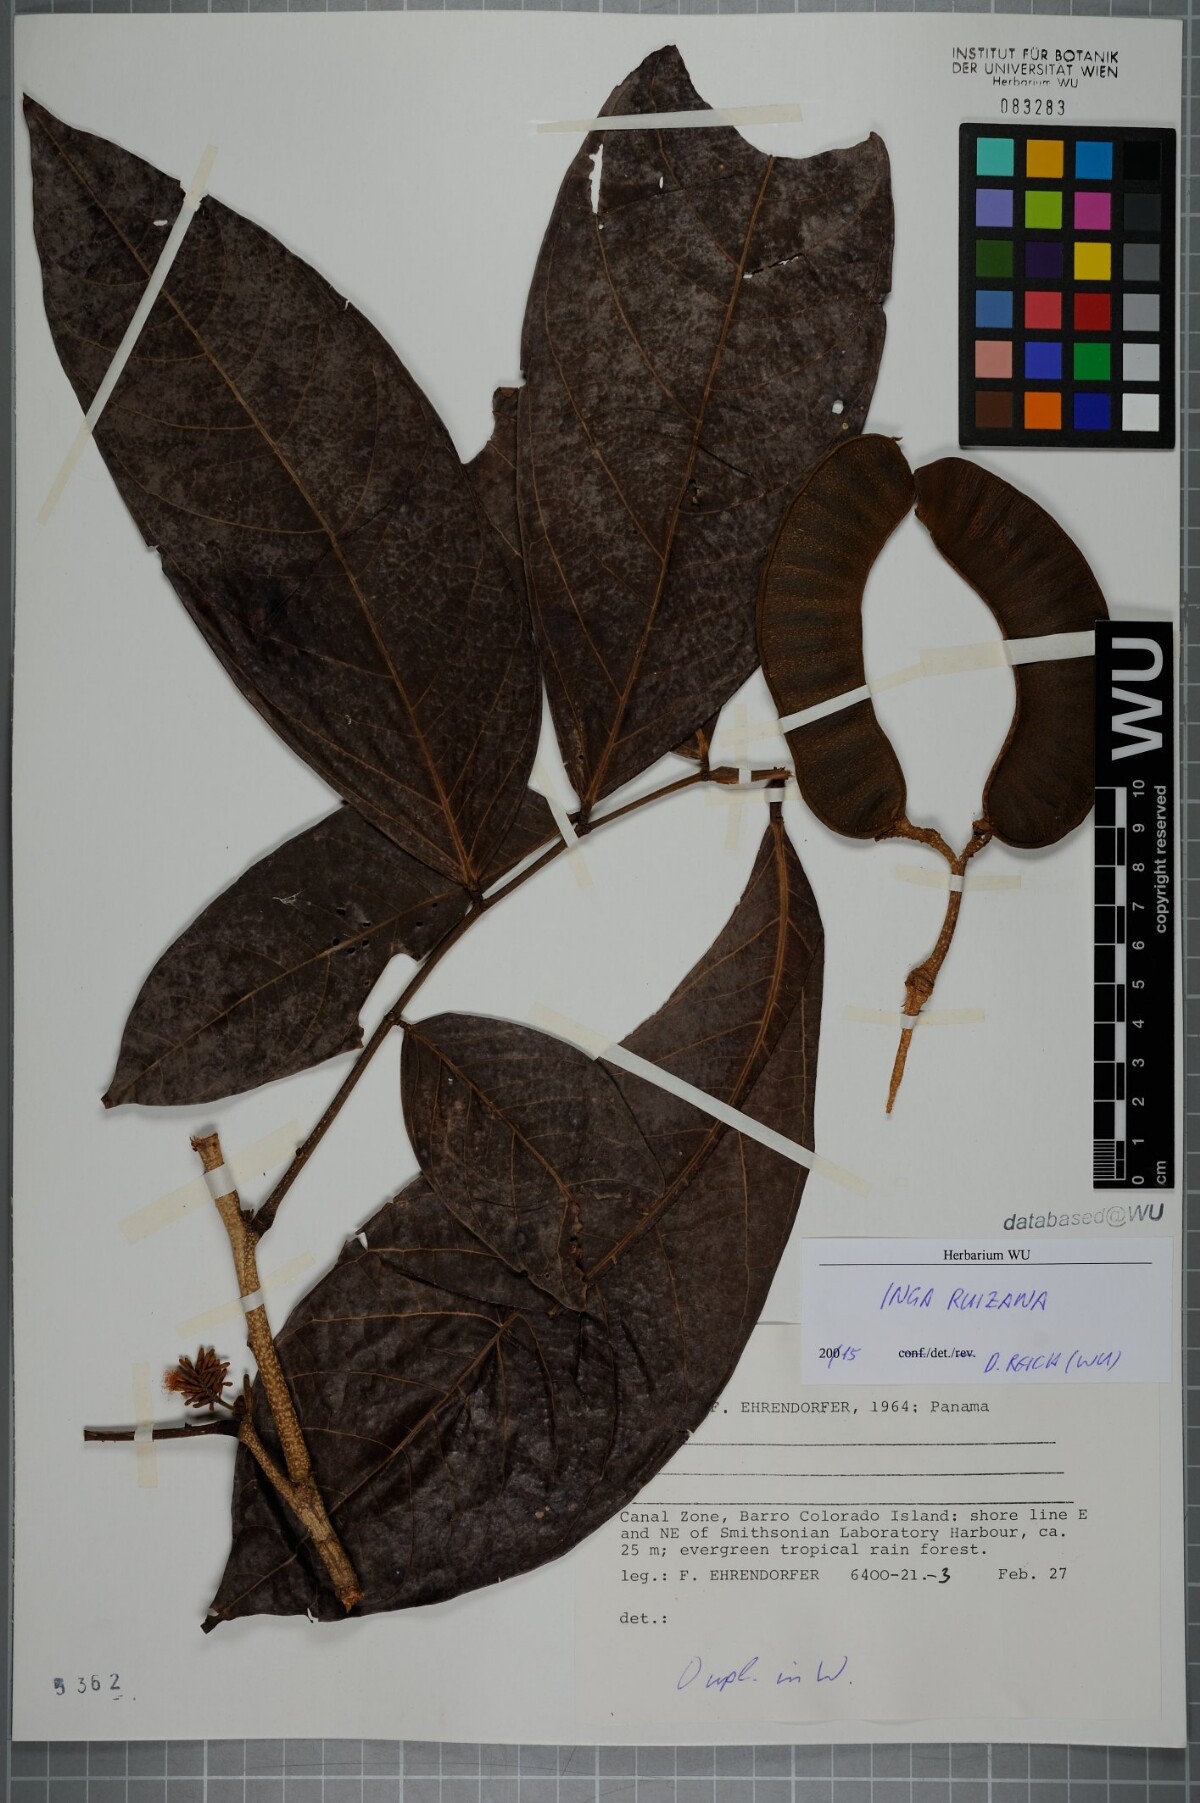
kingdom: Plantae
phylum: Tracheophyta
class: Magnoliopsida
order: Fabales
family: Fabaceae
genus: Inga
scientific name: Inga ruiziana
